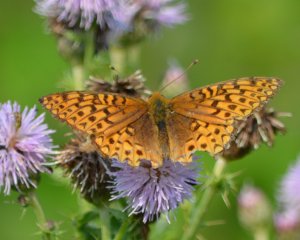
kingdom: Animalia
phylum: Arthropoda
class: Insecta
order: Lepidoptera
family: Nymphalidae
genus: Speyeria
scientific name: Speyeria atlantis
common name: Atlantis Fritillary
